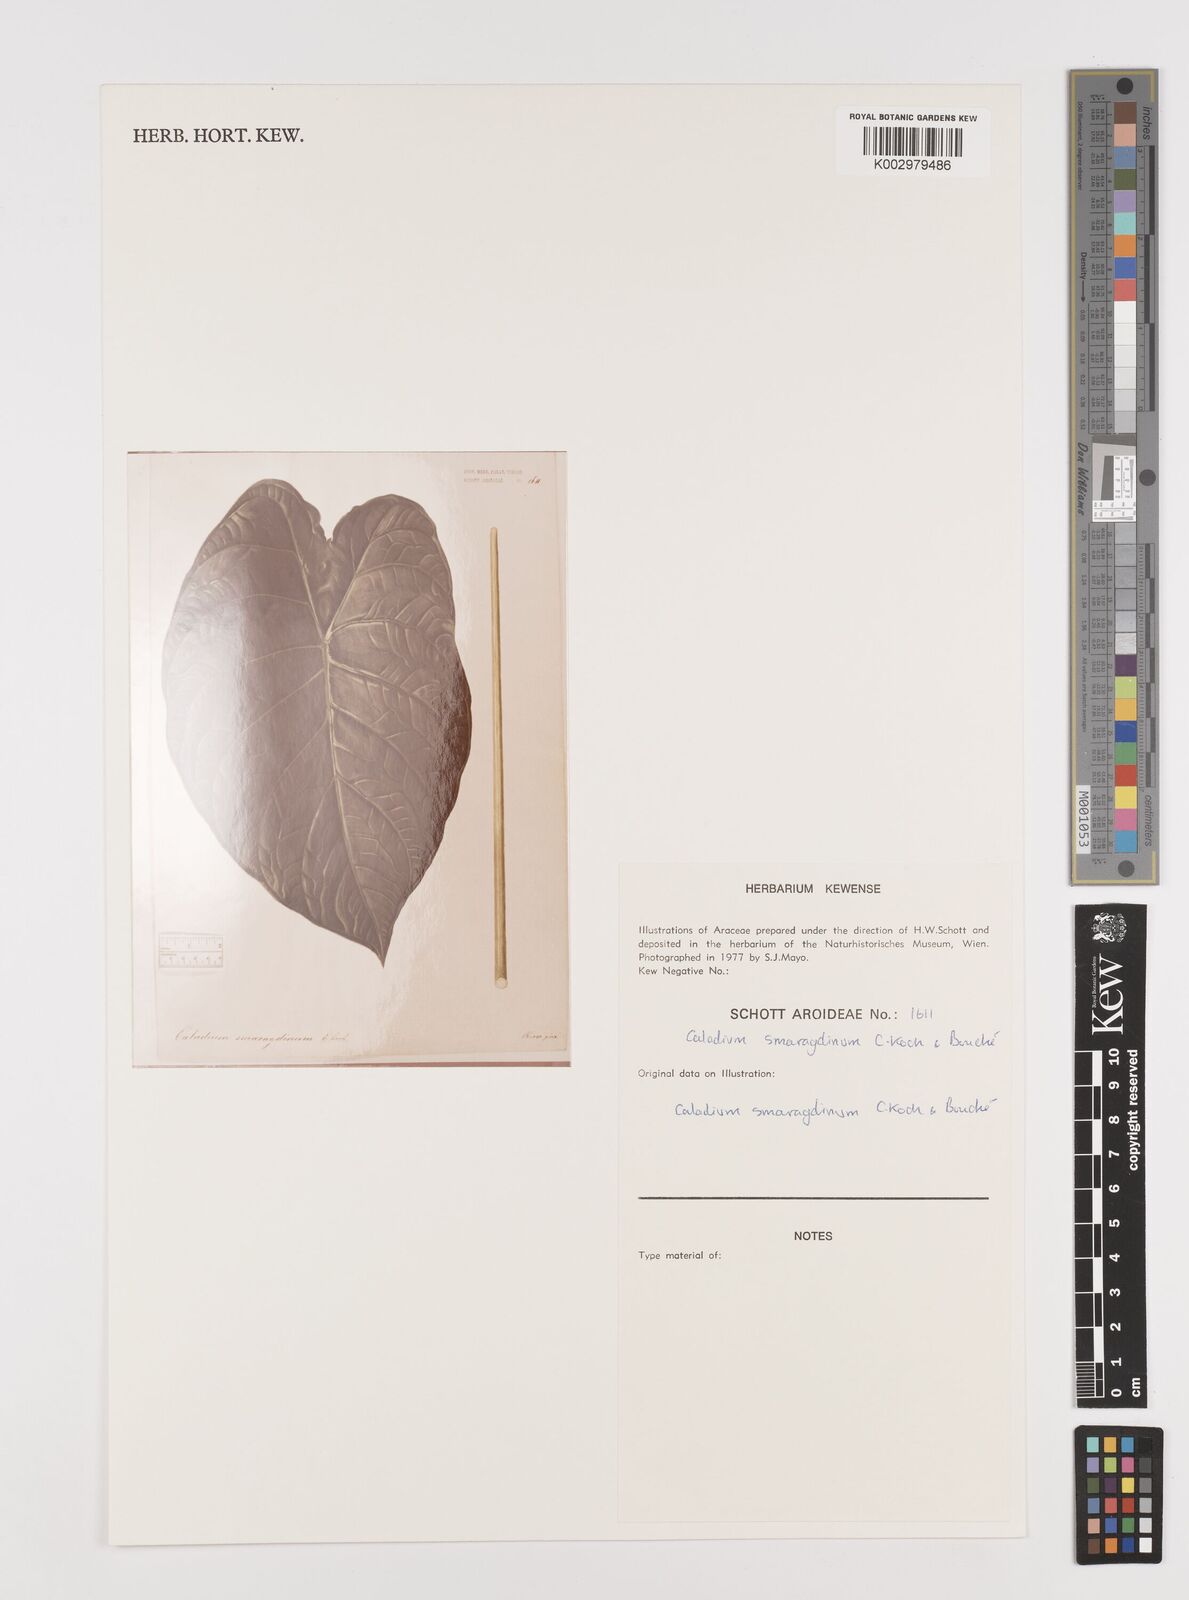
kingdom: Plantae
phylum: Tracheophyta
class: Liliopsida
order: Alismatales
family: Araceae
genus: Caladium
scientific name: Caladium schomburgkii
